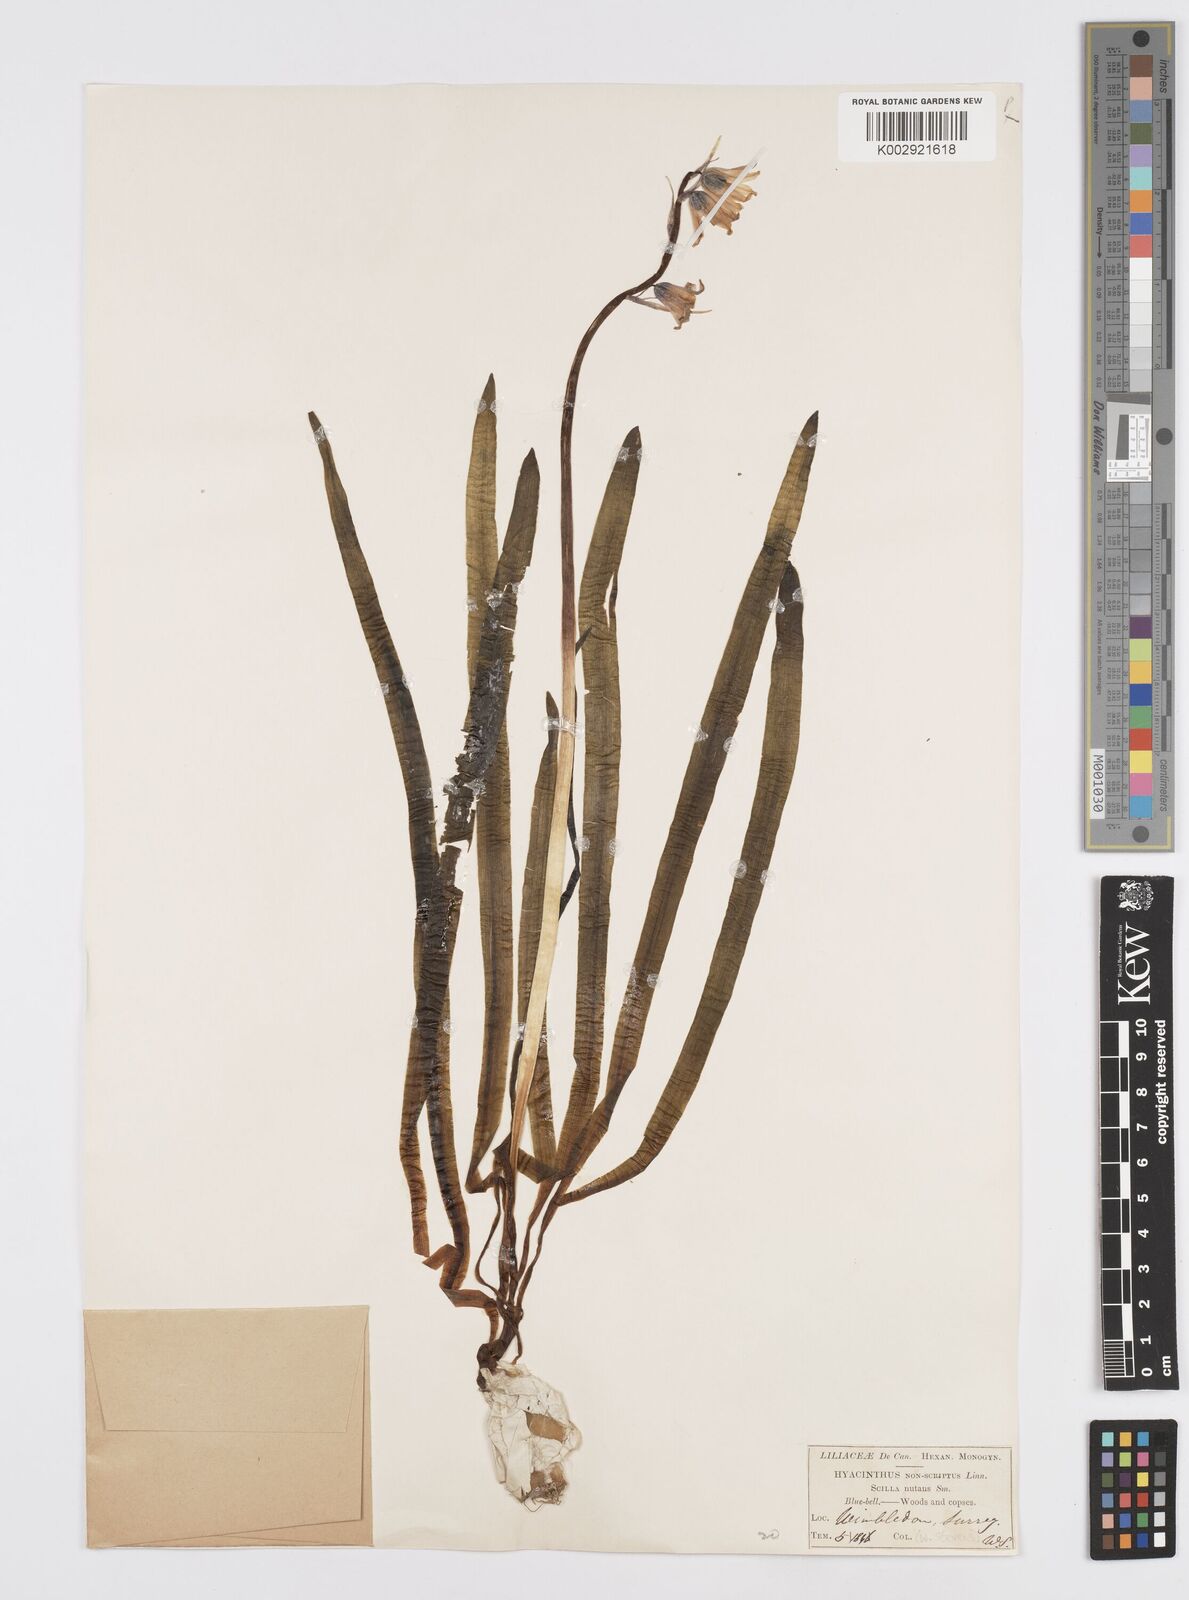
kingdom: Plantae
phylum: Tracheophyta
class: Liliopsida
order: Asparagales
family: Asparagaceae
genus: Hyacinthoides
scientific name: Hyacinthoides non-scripta
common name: Bluebell
